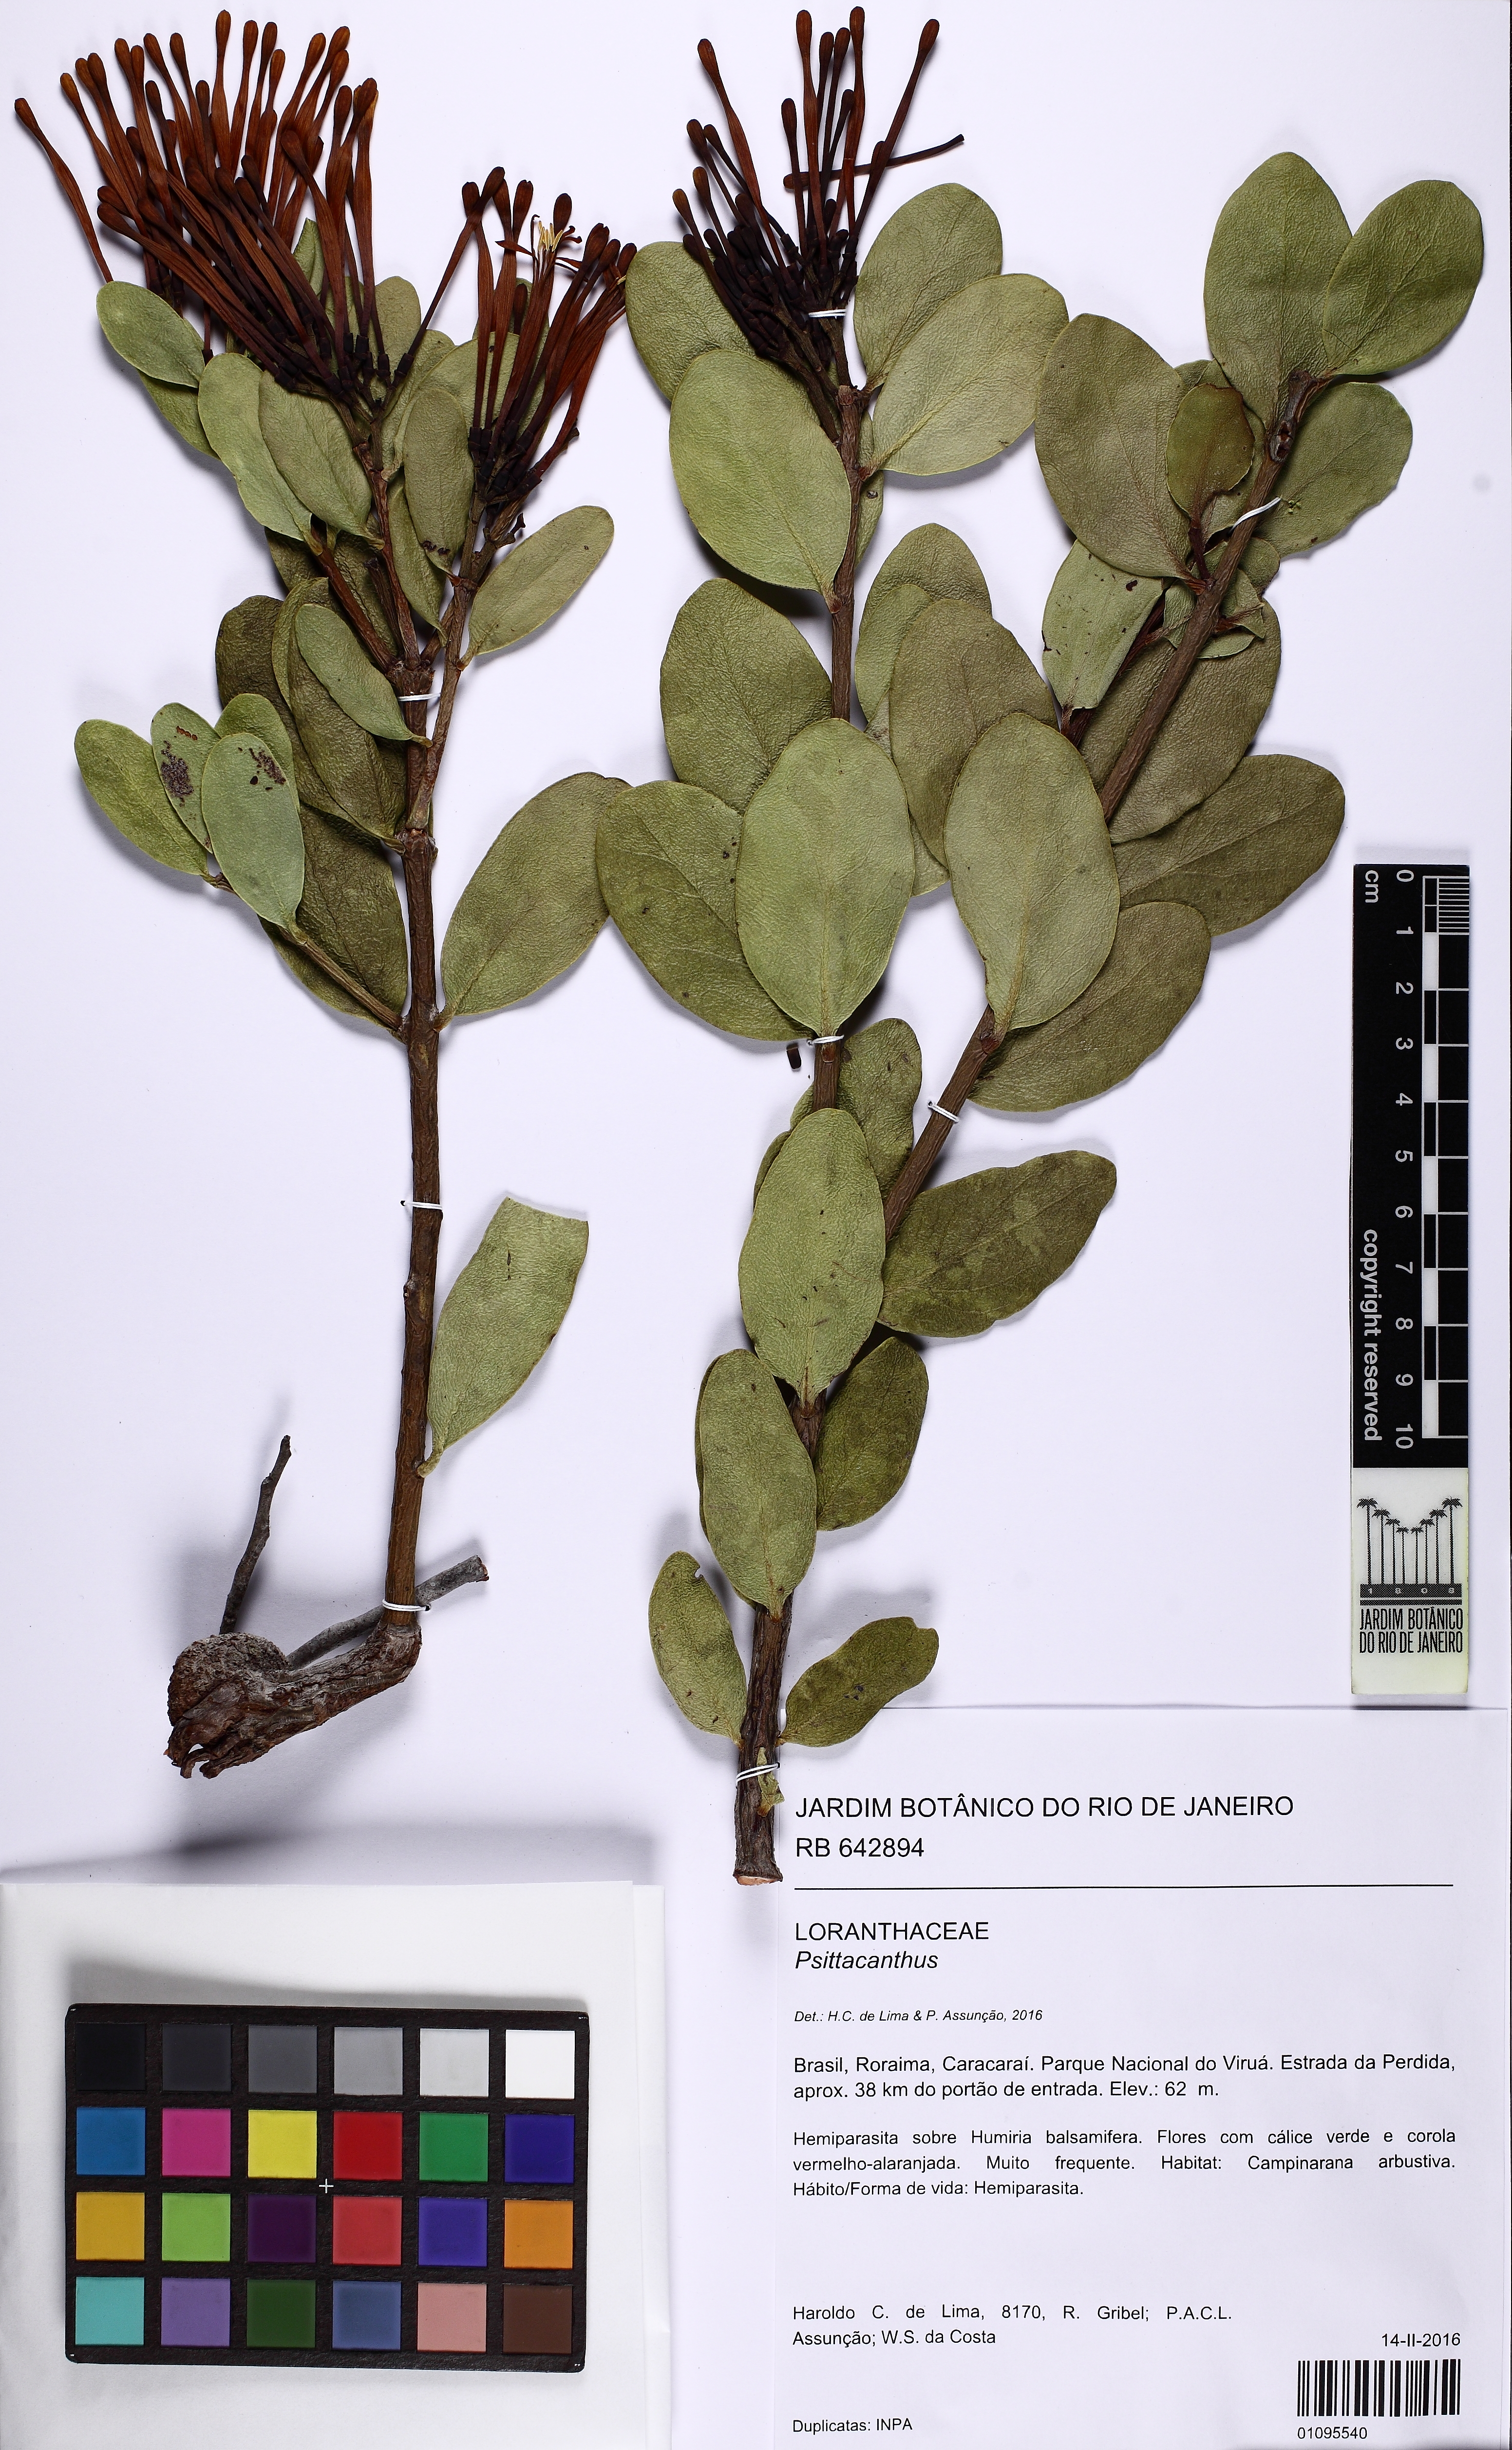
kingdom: Plantae
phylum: Tracheophyta
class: Magnoliopsida
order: Santalales
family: Loranthaceae
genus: Psittacanthus
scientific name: Psittacanthus
